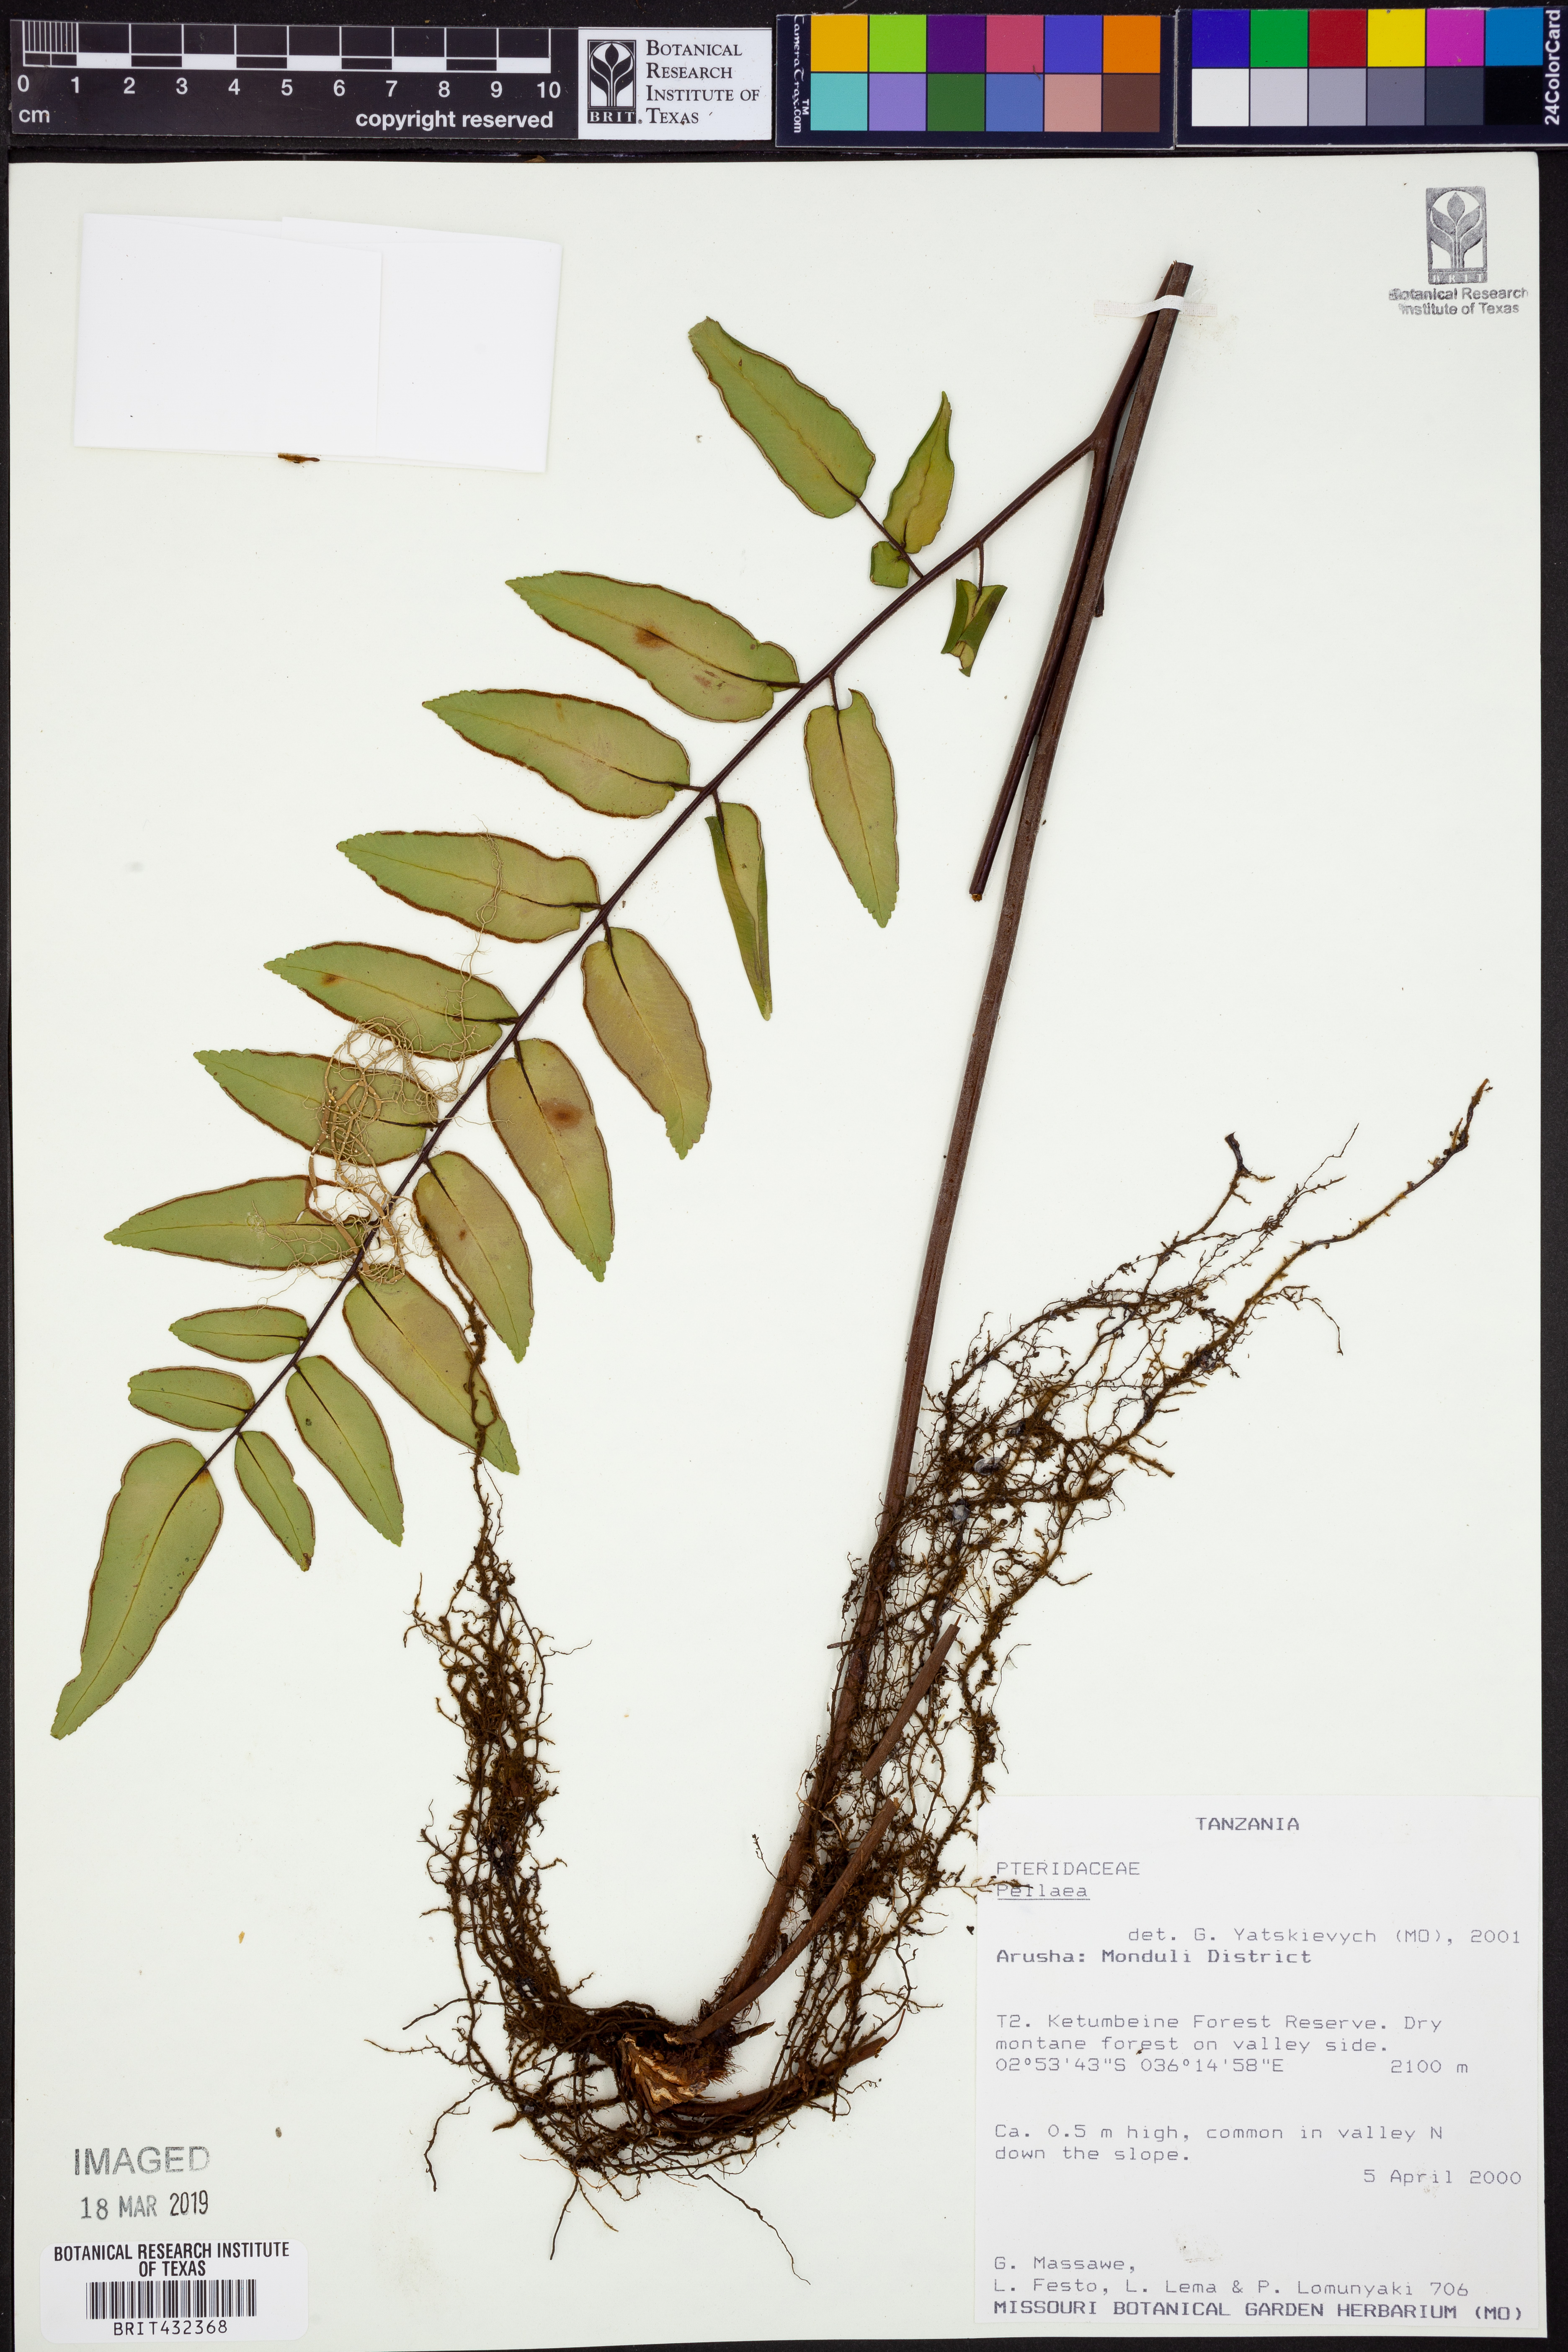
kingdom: Plantae
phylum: Tracheophyta
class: Polypodiopsida
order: Polypodiales
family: Pteridaceae
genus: Pellaea
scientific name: Pellaea
